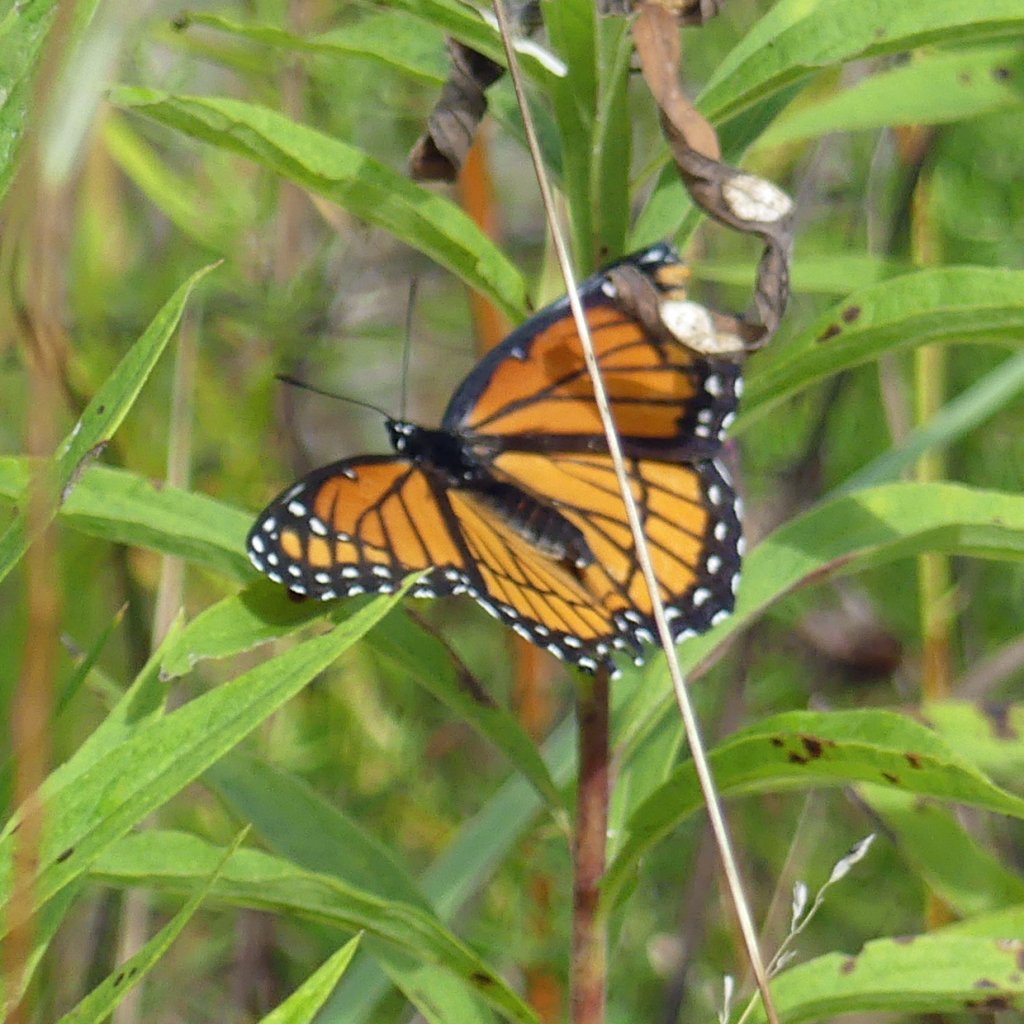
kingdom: Animalia
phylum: Arthropoda
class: Insecta
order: Lepidoptera
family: Nymphalidae
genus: Limenitis
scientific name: Limenitis archippus
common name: Viceroy
